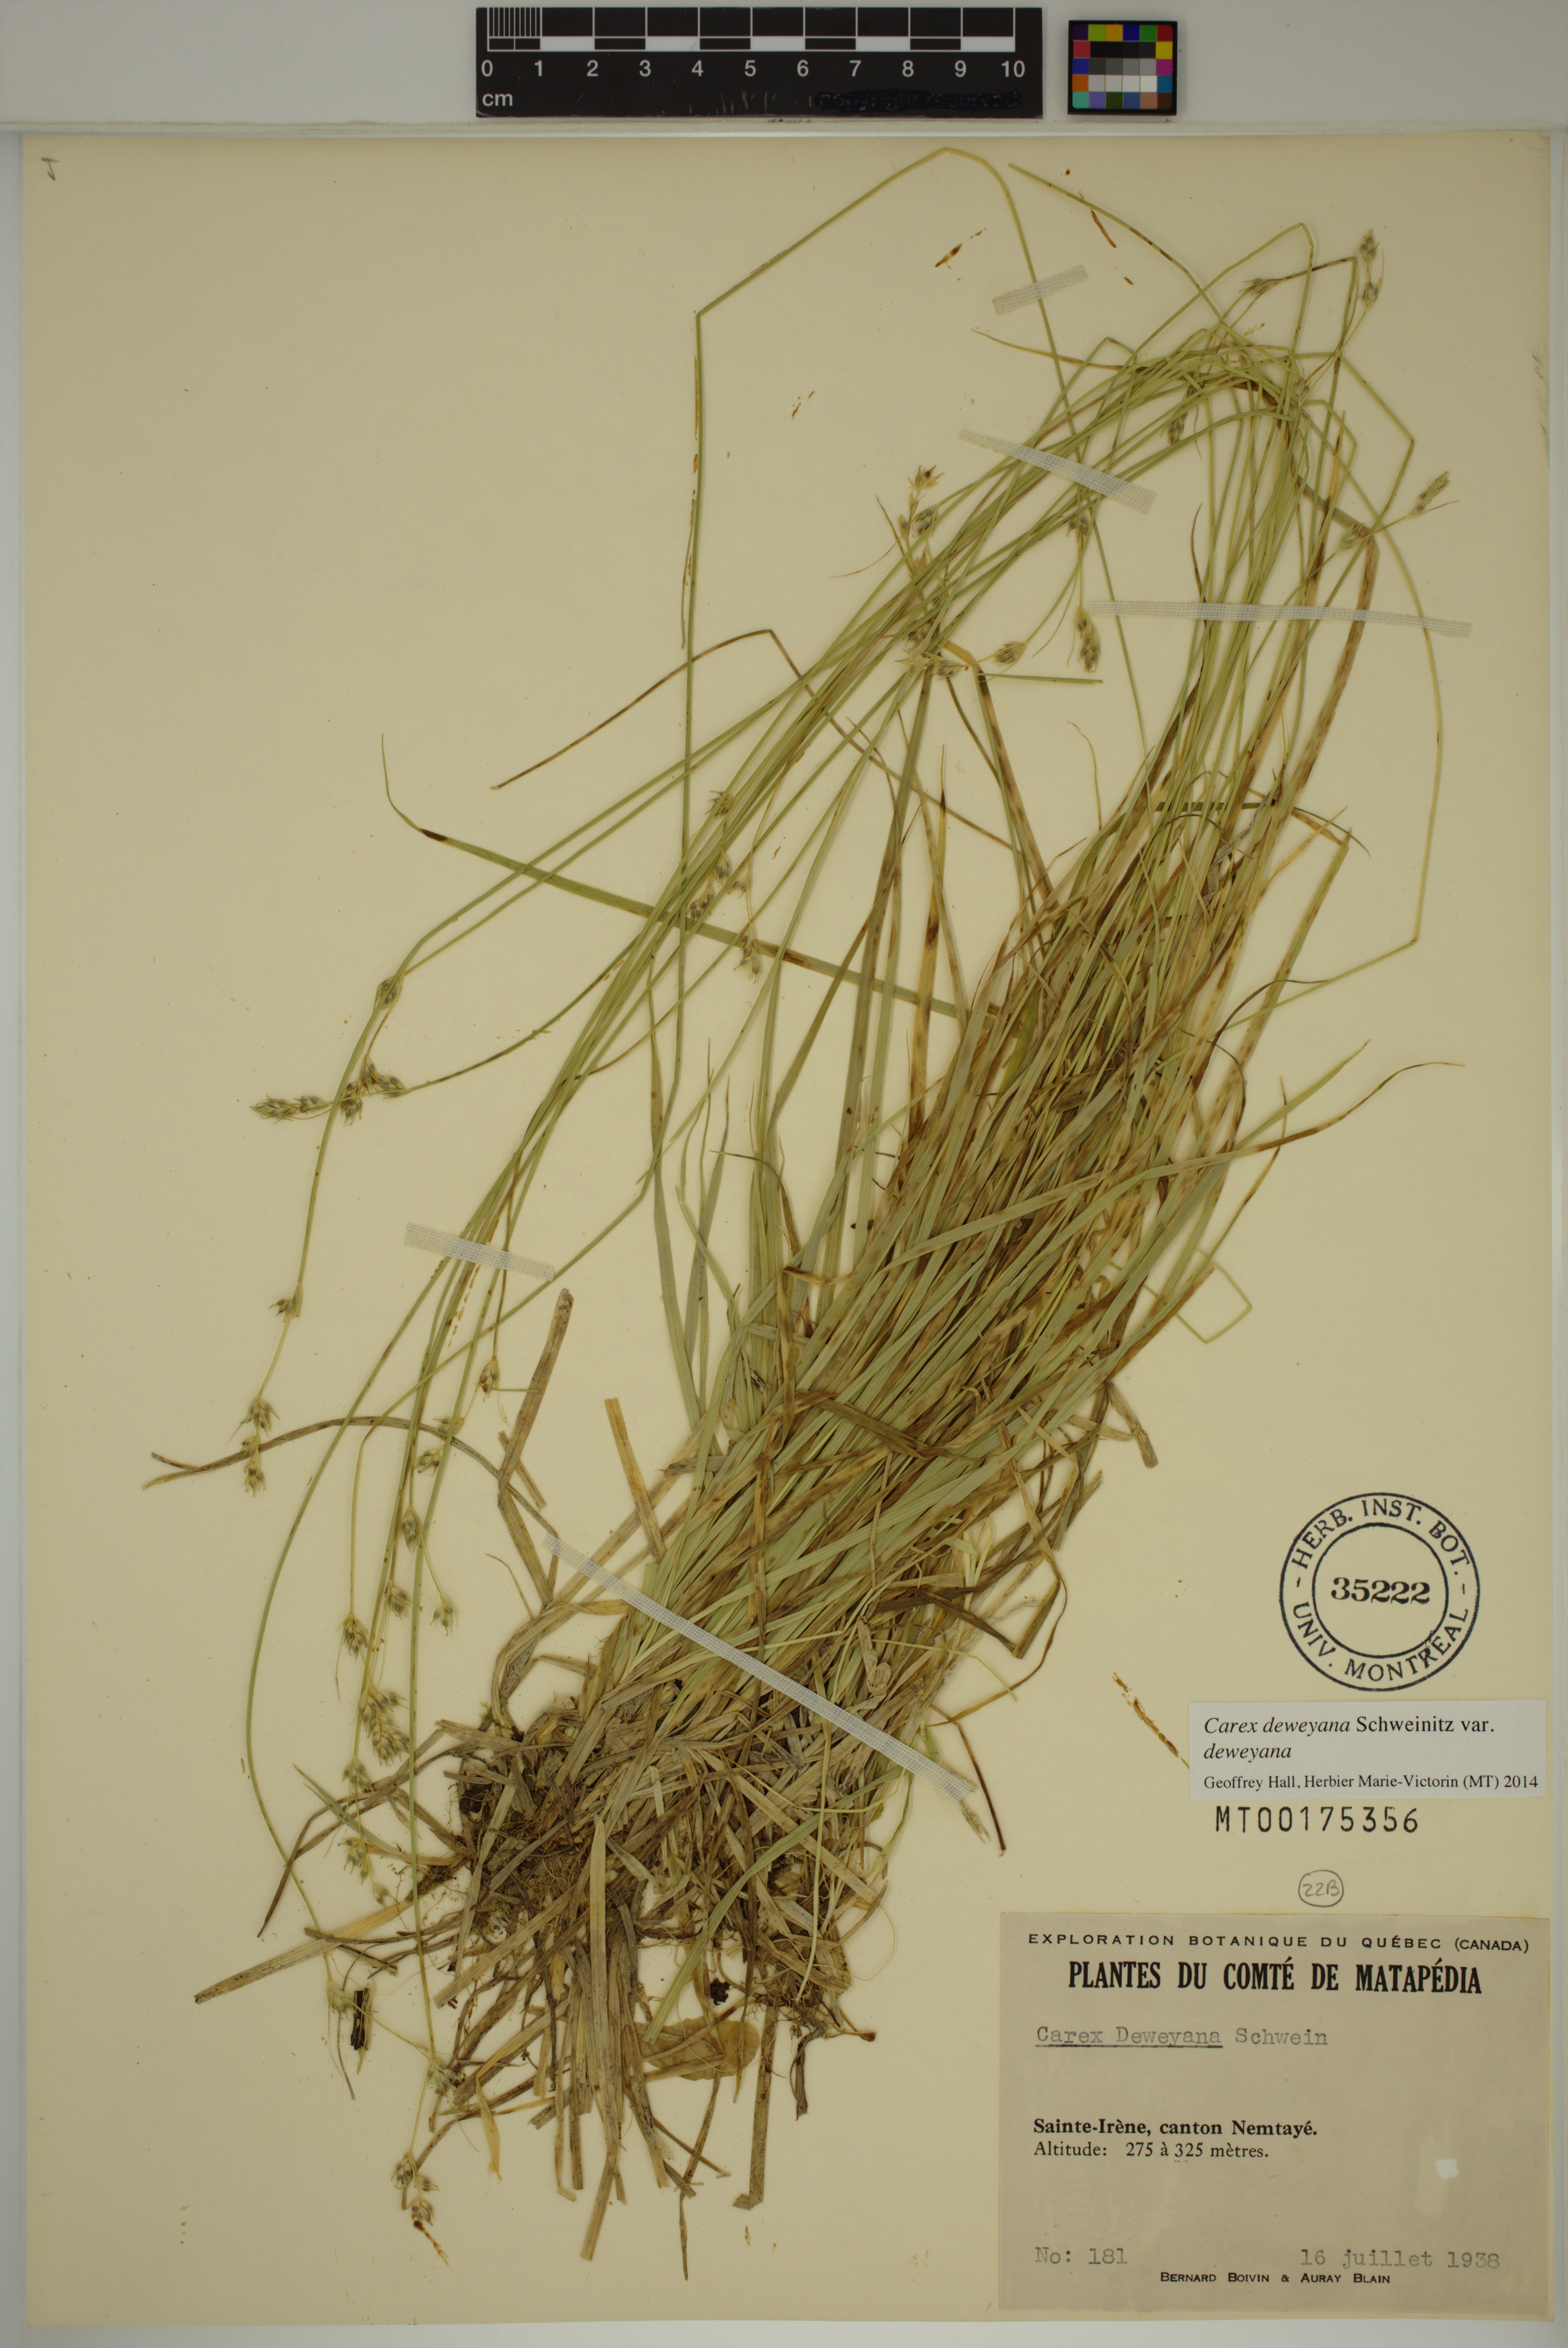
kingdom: Plantae
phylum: Tracheophyta
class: Liliopsida
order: Poales
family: Cyperaceae
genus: Carex
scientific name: Carex deweyana
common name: Dewey's sedge
